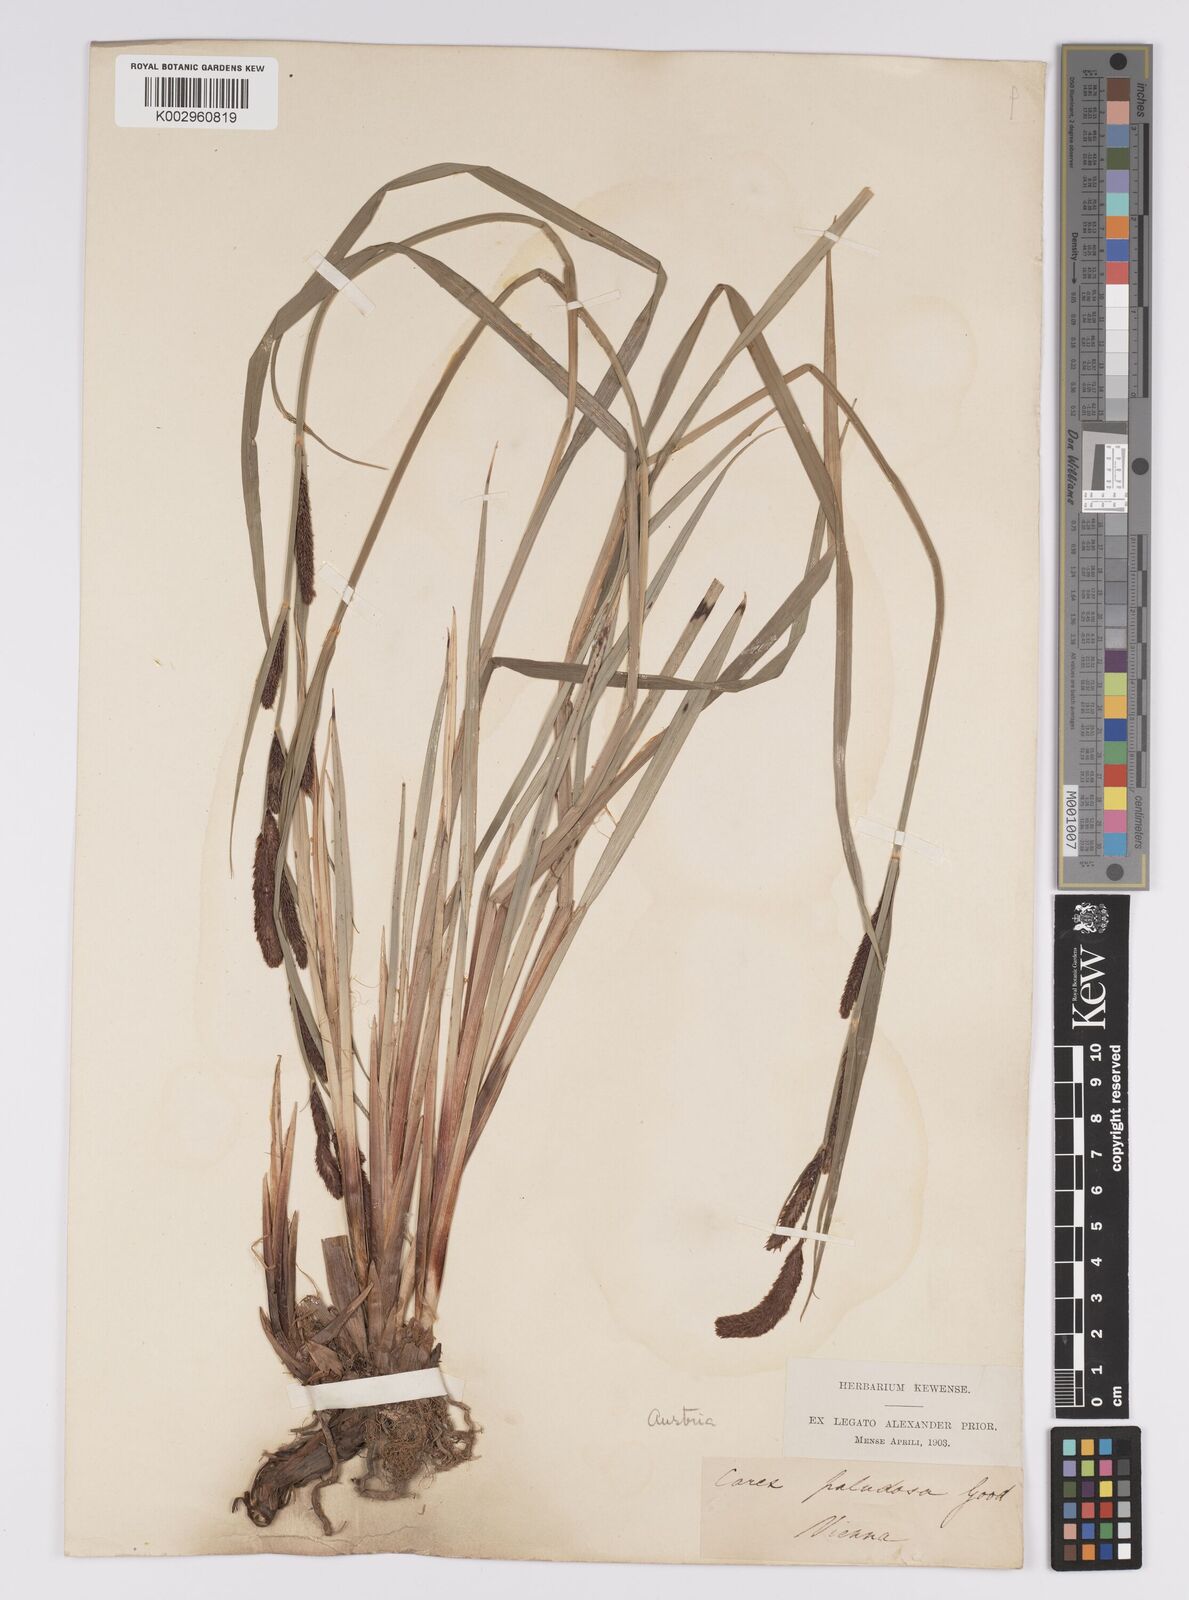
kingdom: Plantae
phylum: Tracheophyta
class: Liliopsida
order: Poales
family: Cyperaceae
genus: Carex
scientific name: Carex acutiformis
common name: Lesser pond-sedge
